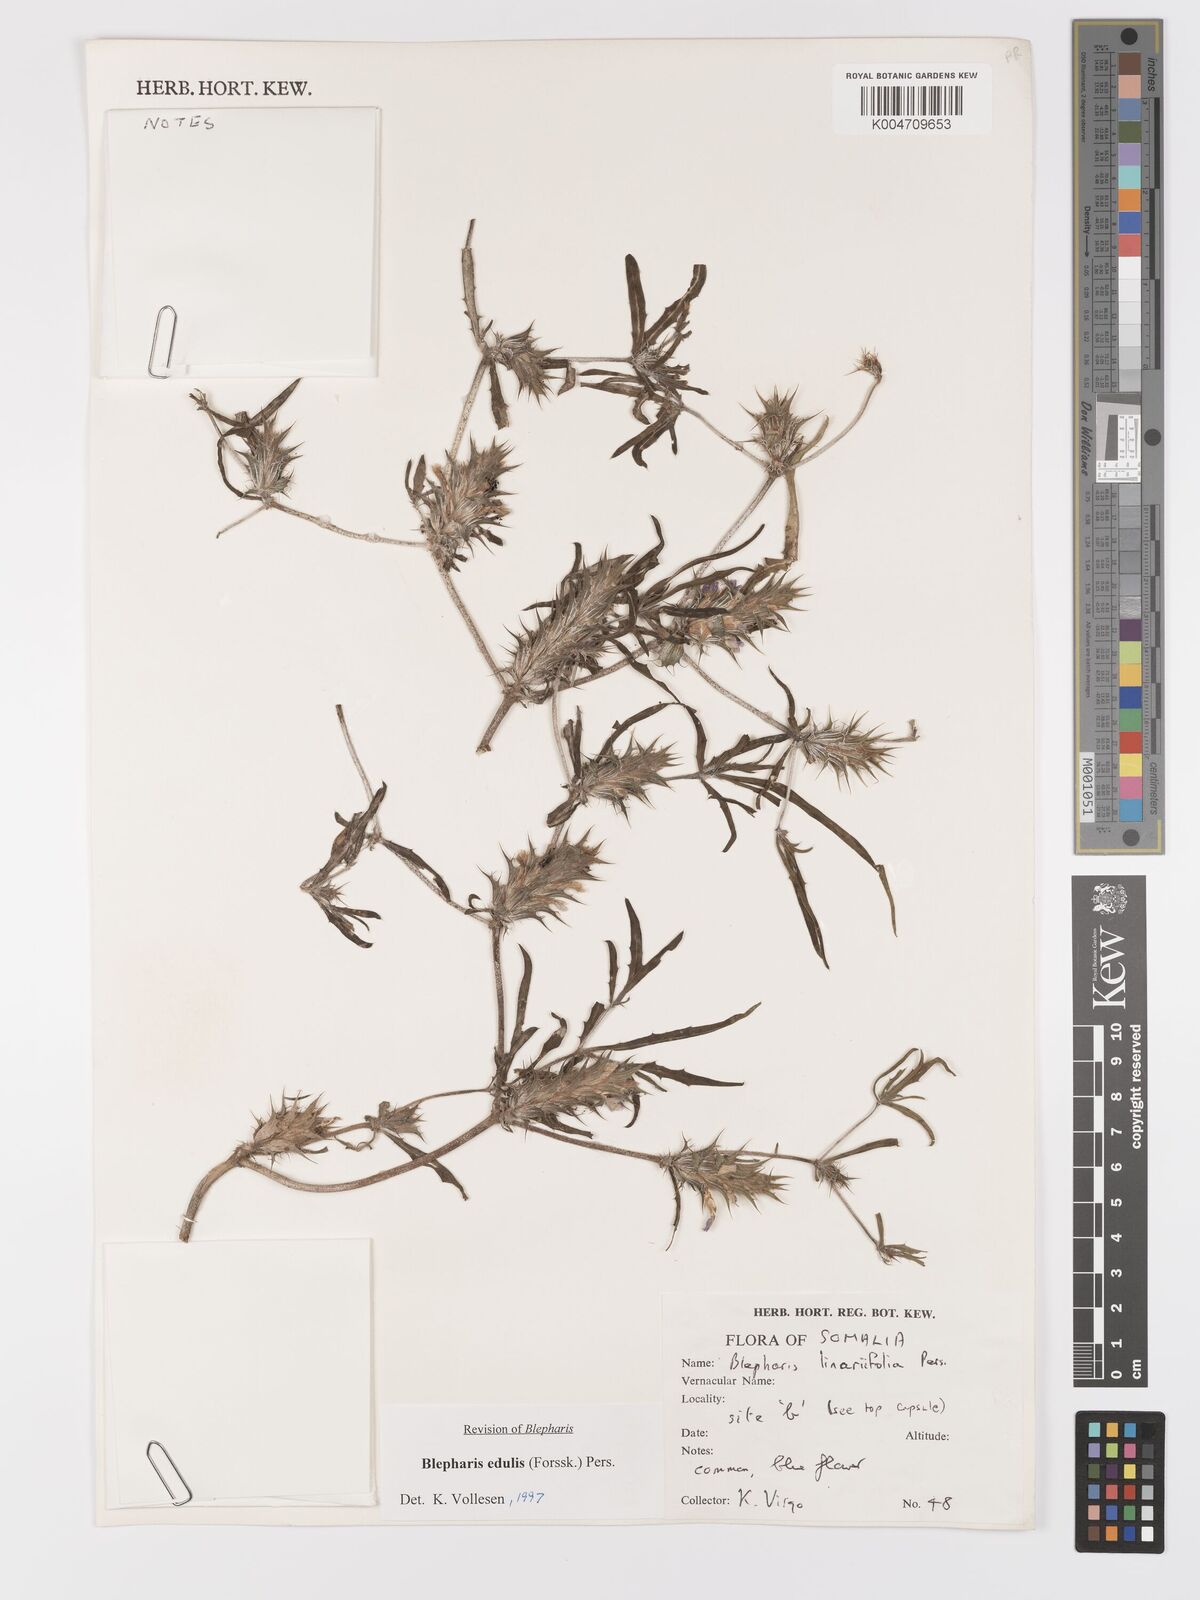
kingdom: Plantae
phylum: Tracheophyta
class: Magnoliopsida
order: Lamiales
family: Acanthaceae
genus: Blepharis
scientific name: Blepharis edulis
